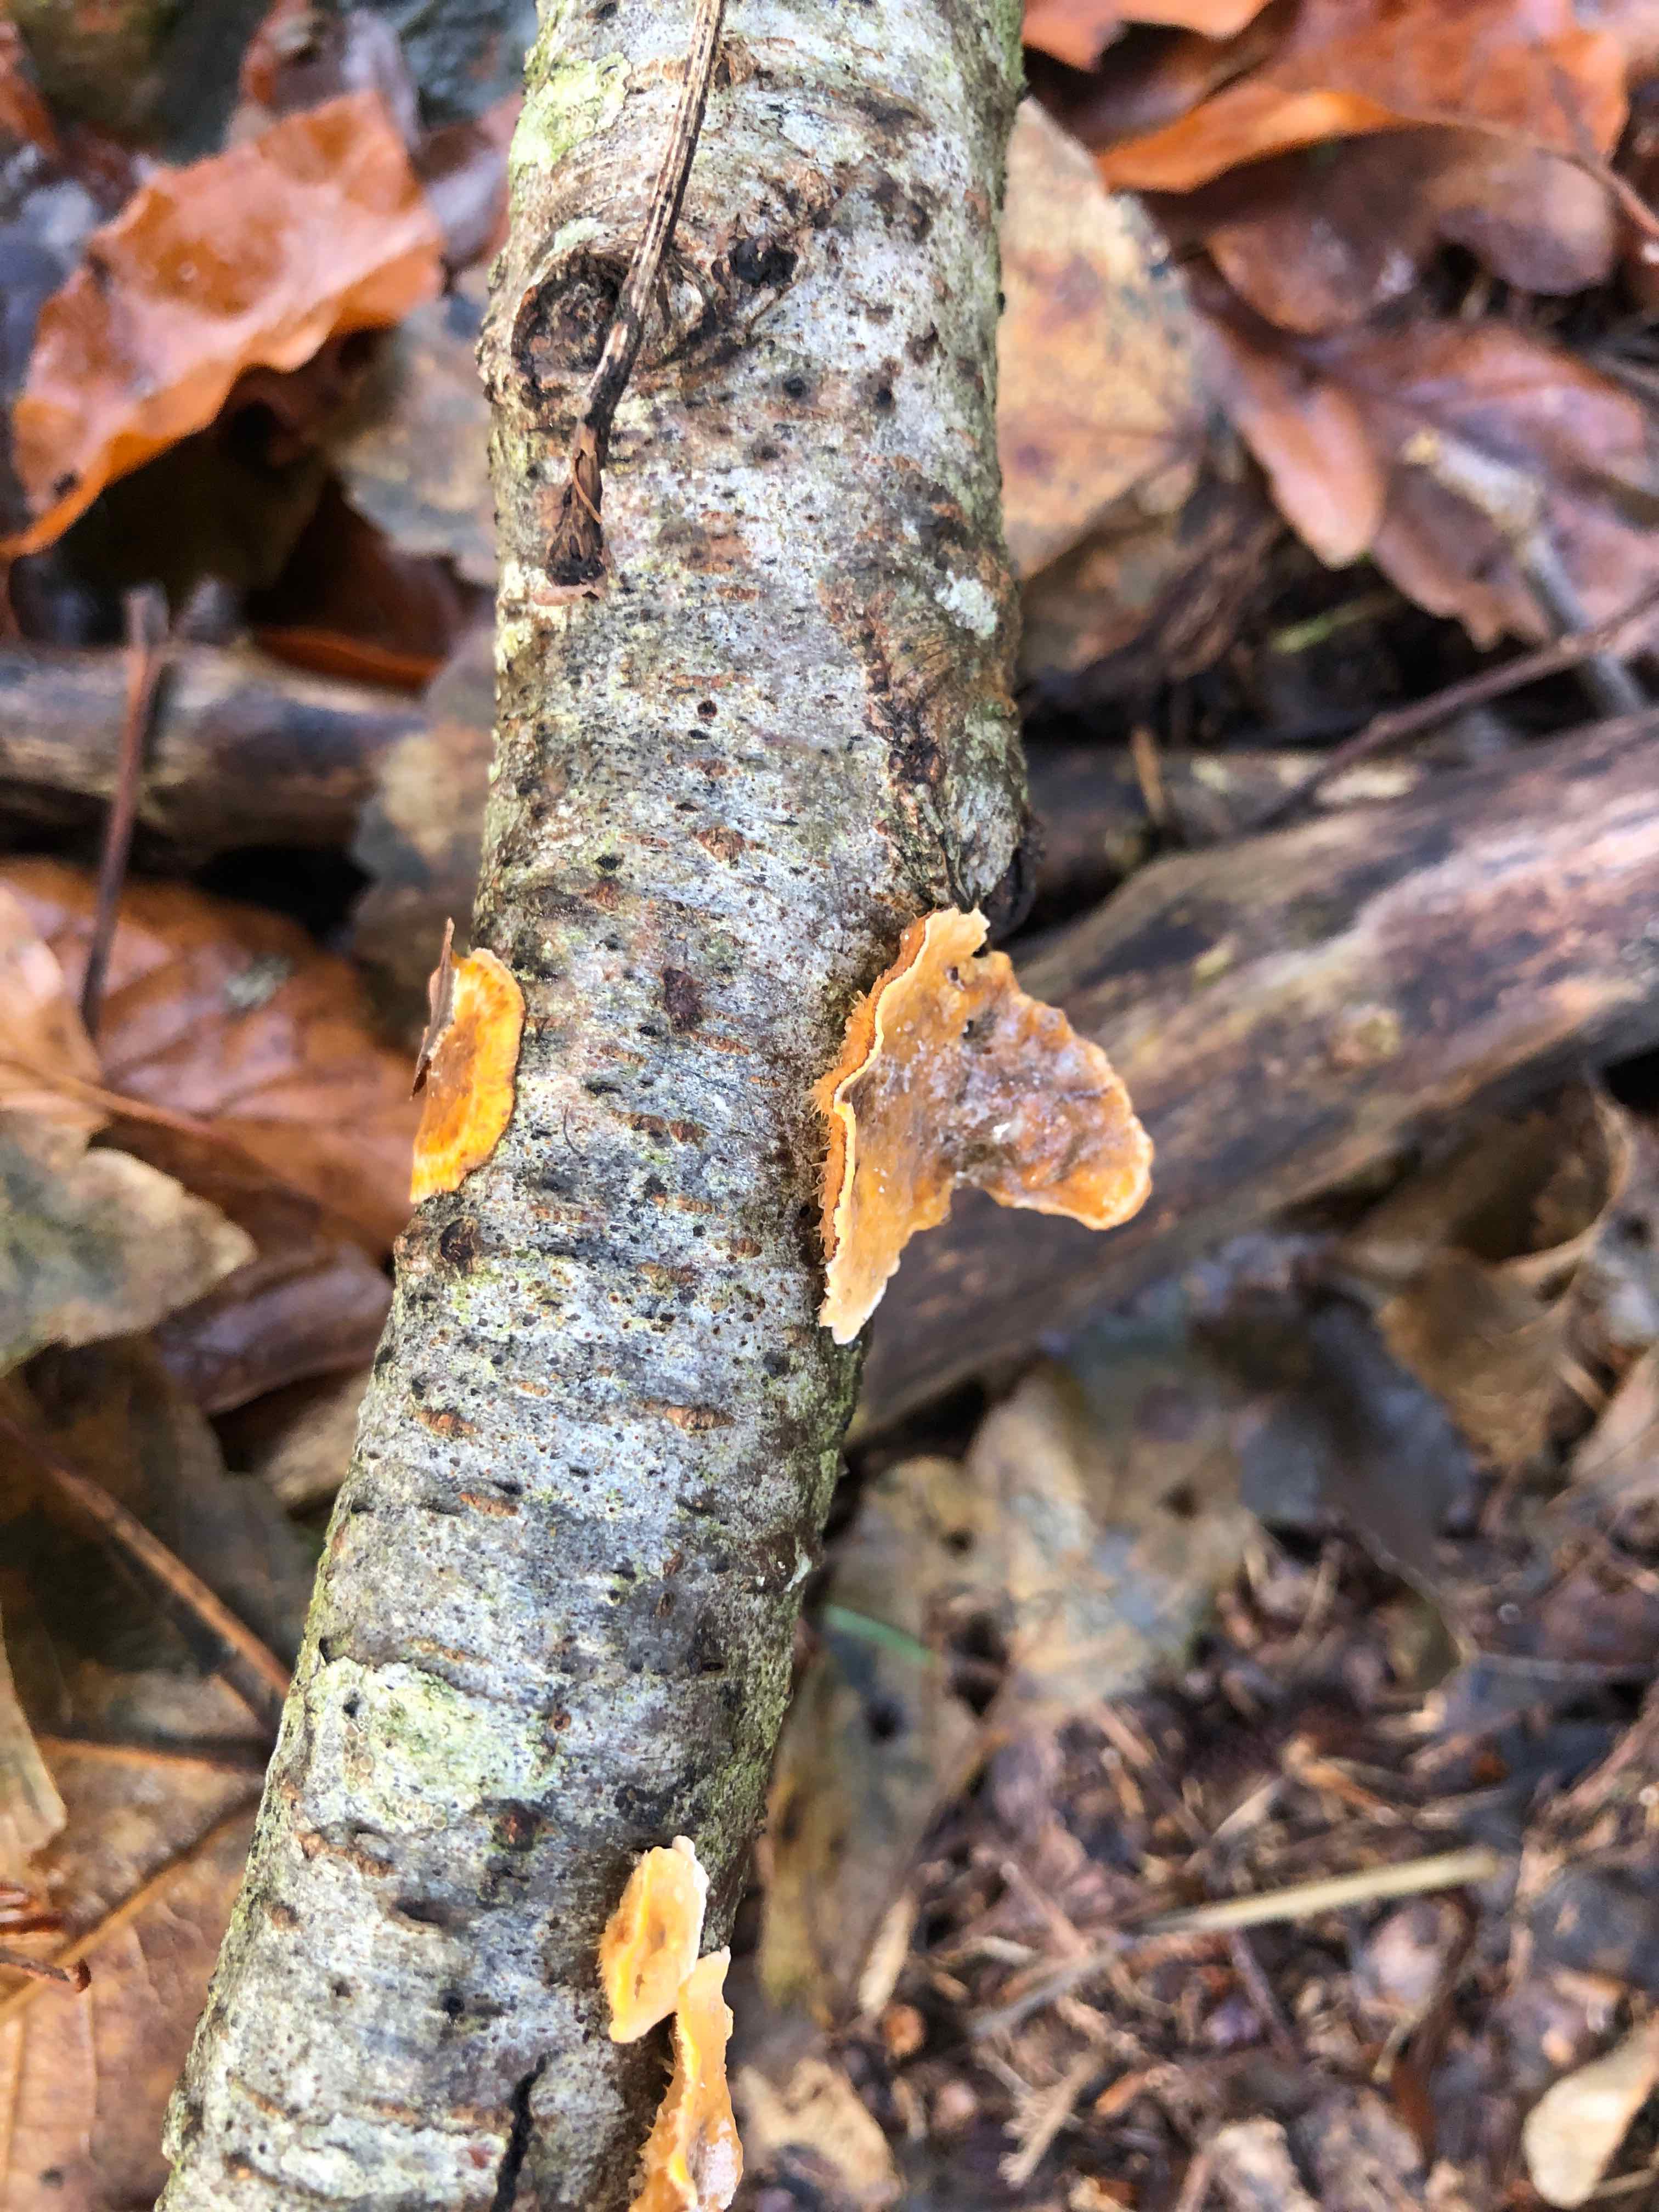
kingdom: Fungi
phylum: Basidiomycota
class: Agaricomycetes
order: Russulales
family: Stereaceae
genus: Stereum
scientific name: Stereum hirsutum
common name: håret lædersvamp
